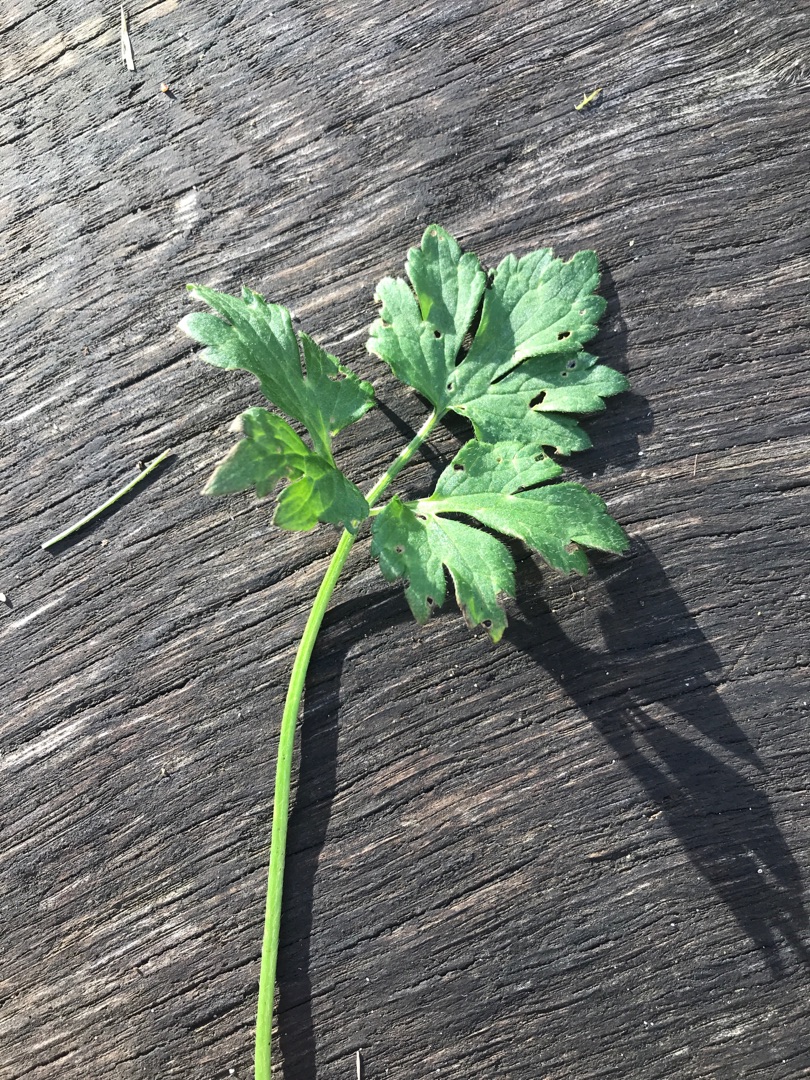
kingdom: Plantae
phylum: Tracheophyta
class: Magnoliopsida
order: Ranunculales
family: Ranunculaceae
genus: Ranunculus
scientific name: Ranunculus repens
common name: Lav ranunkel
